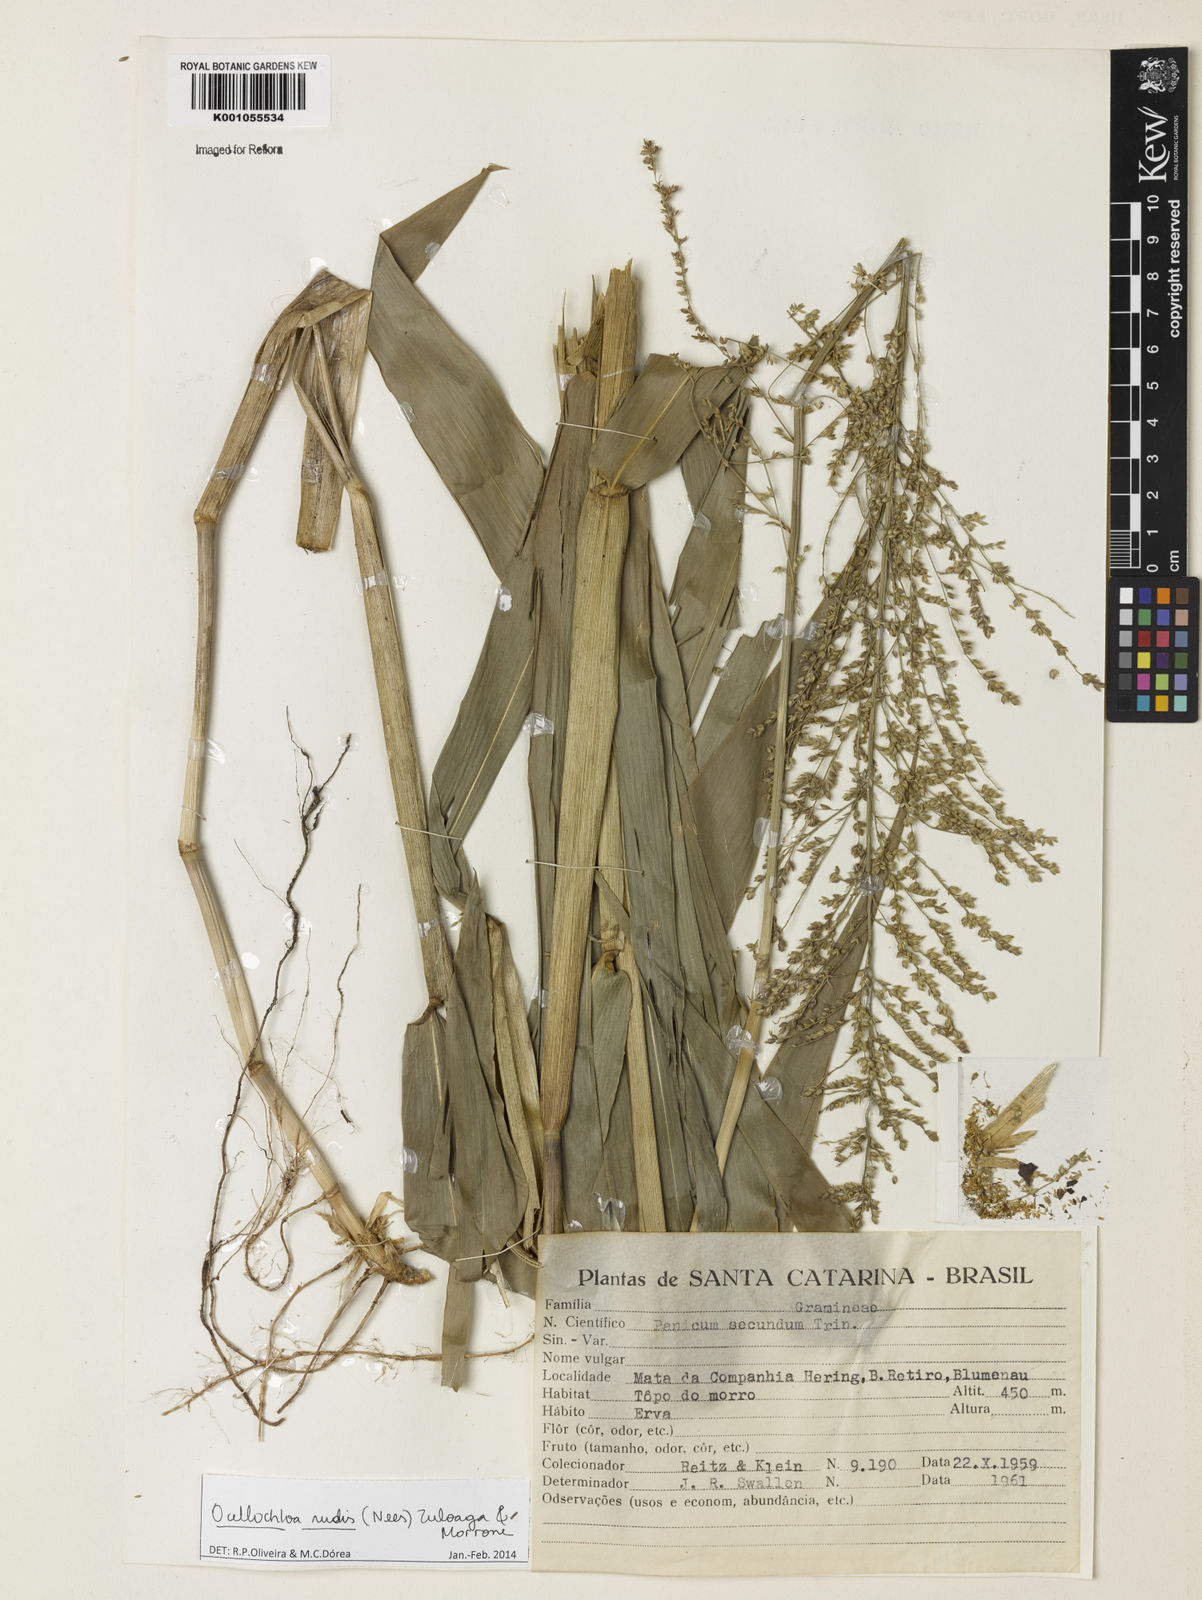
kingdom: Plantae
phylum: Tracheophyta
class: Liliopsida
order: Poales
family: Poaceae
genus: Ocellochloa
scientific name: Ocellochloa rudis
